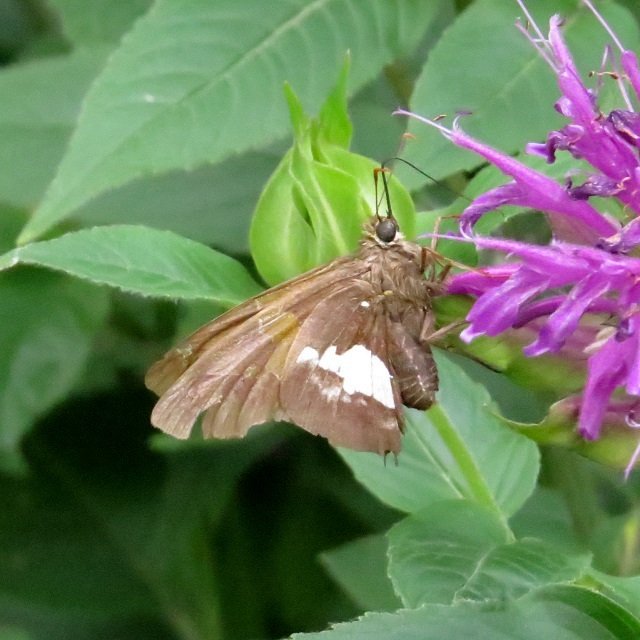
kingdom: Animalia
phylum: Arthropoda
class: Insecta
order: Lepidoptera
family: Hesperiidae
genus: Epargyreus
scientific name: Epargyreus clarus
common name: Silver-spotted Skipper
